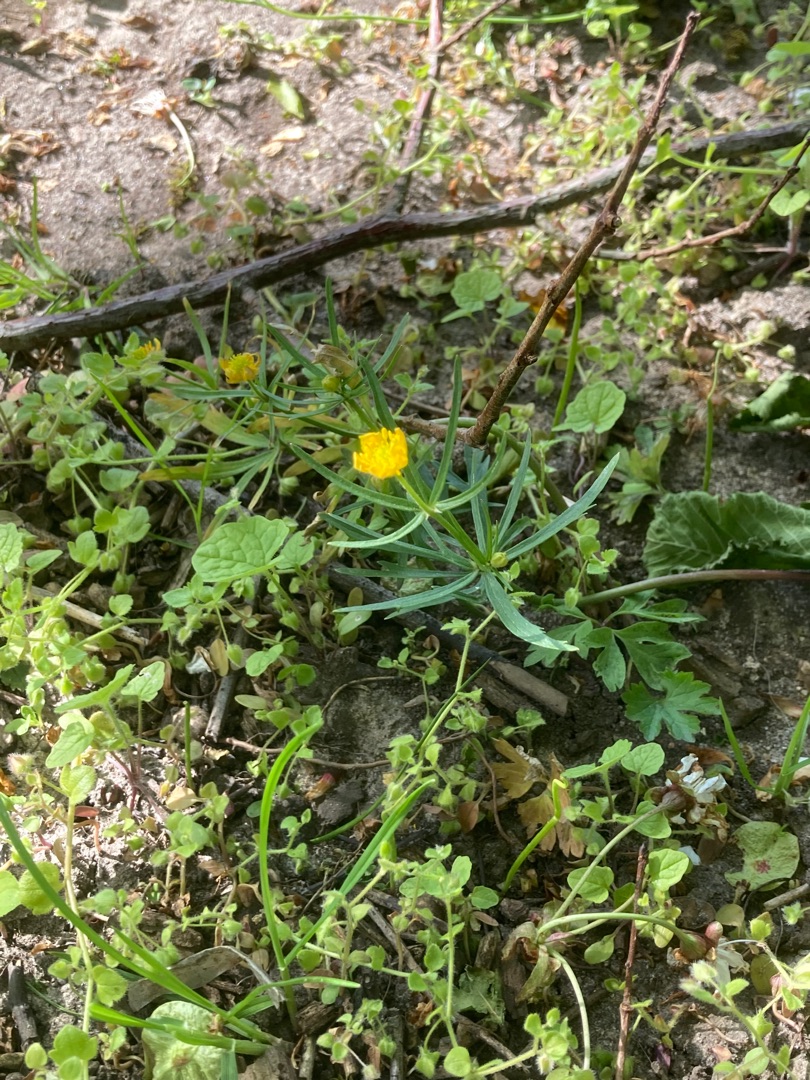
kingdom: Plantae
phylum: Tracheophyta
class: Magnoliopsida
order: Ranunculales
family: Ranunculaceae
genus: Ranunculus
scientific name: Ranunculus auricomus
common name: Nyrebladet ranunkel
